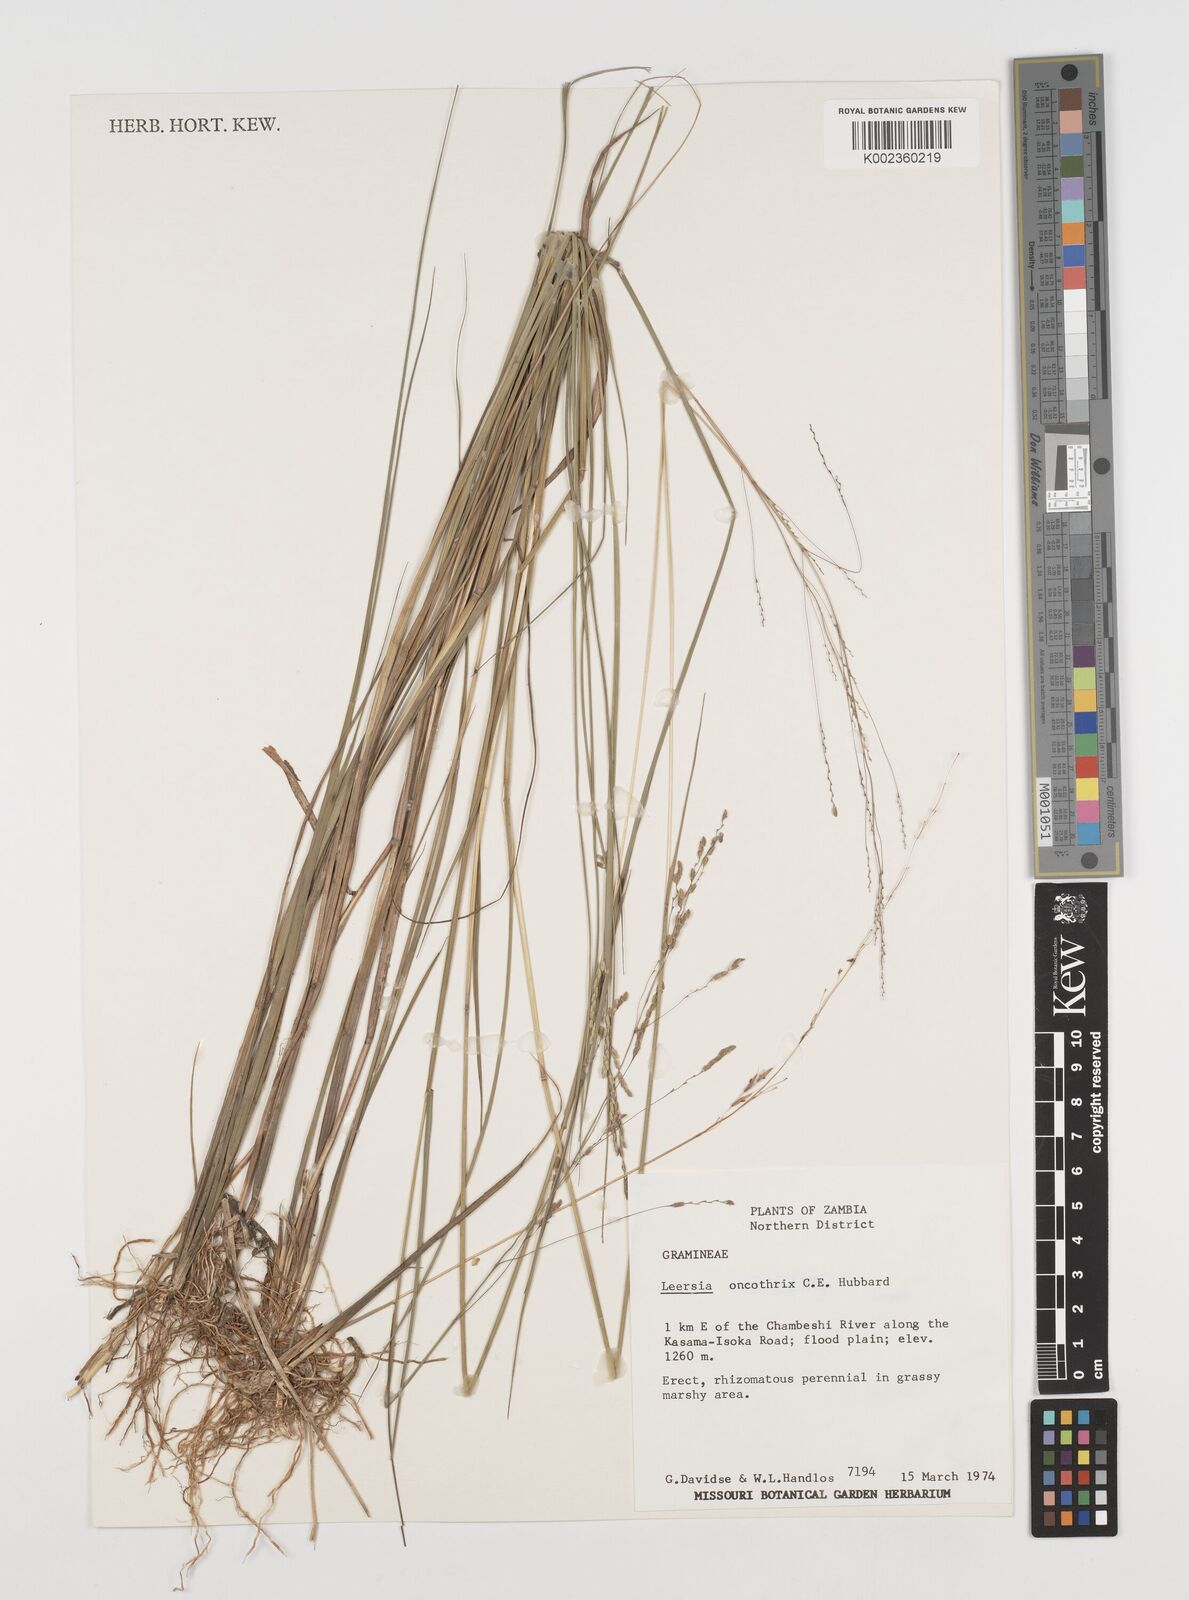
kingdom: Plantae
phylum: Tracheophyta
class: Liliopsida
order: Poales
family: Poaceae
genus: Leersia
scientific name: Leersia oncothrix
